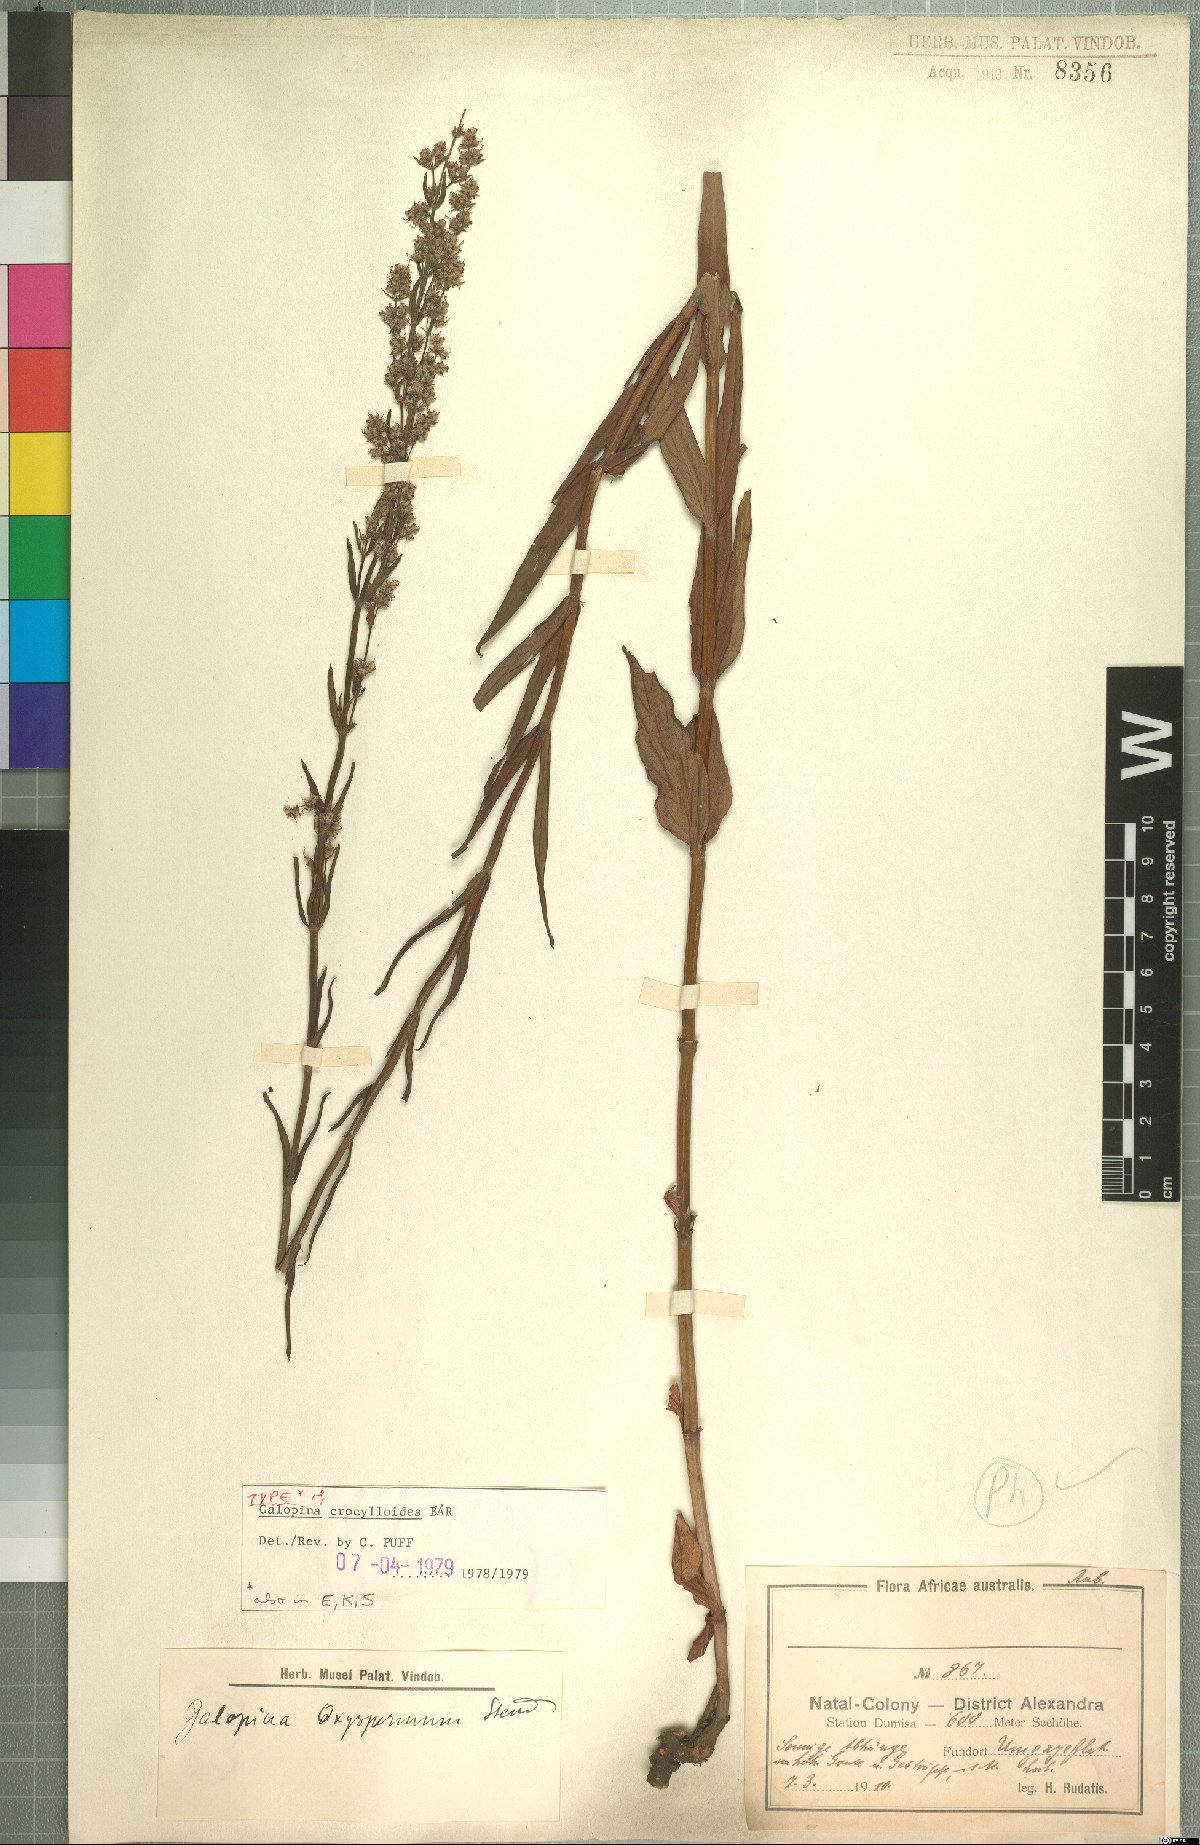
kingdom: Plantae
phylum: Tracheophyta
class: Magnoliopsida
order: Gentianales
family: Rubiaceae
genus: Galopina
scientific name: Galopina crocyllioides
